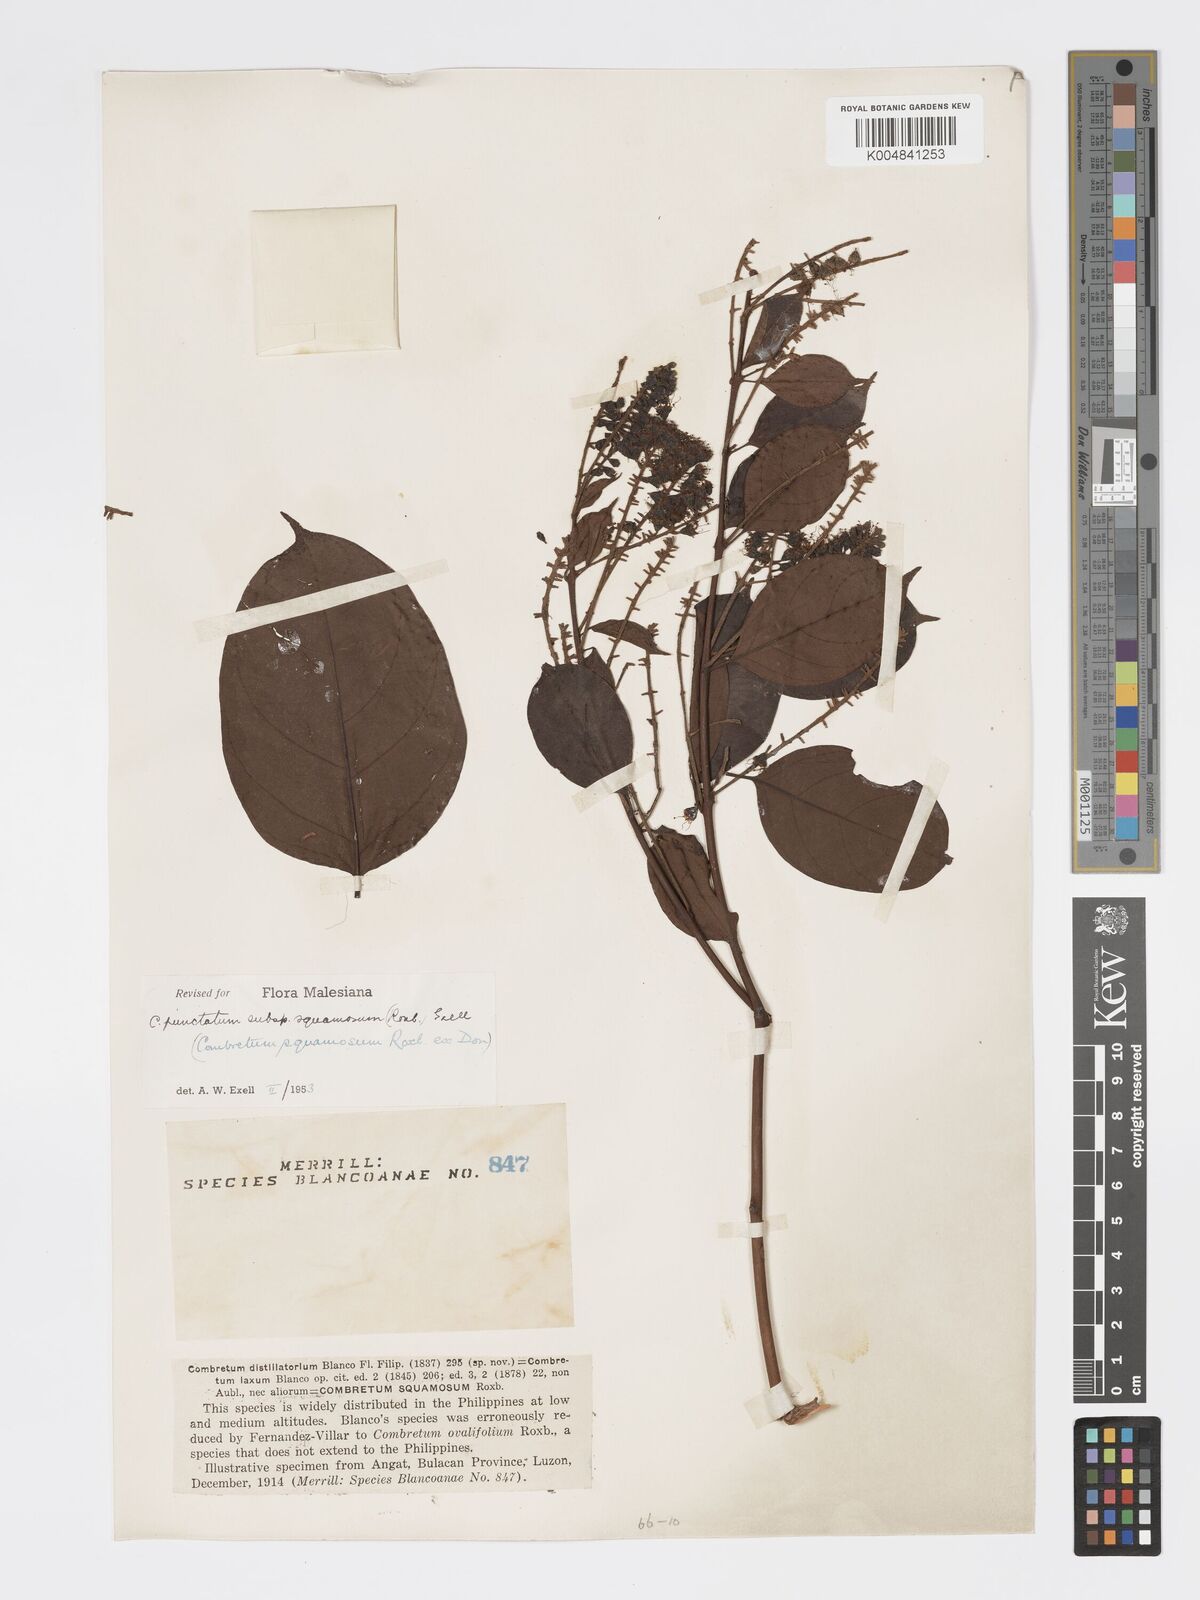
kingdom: Plantae
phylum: Tracheophyta
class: Magnoliopsida
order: Myrtales
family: Combretaceae
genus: Combretum
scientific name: Combretum
